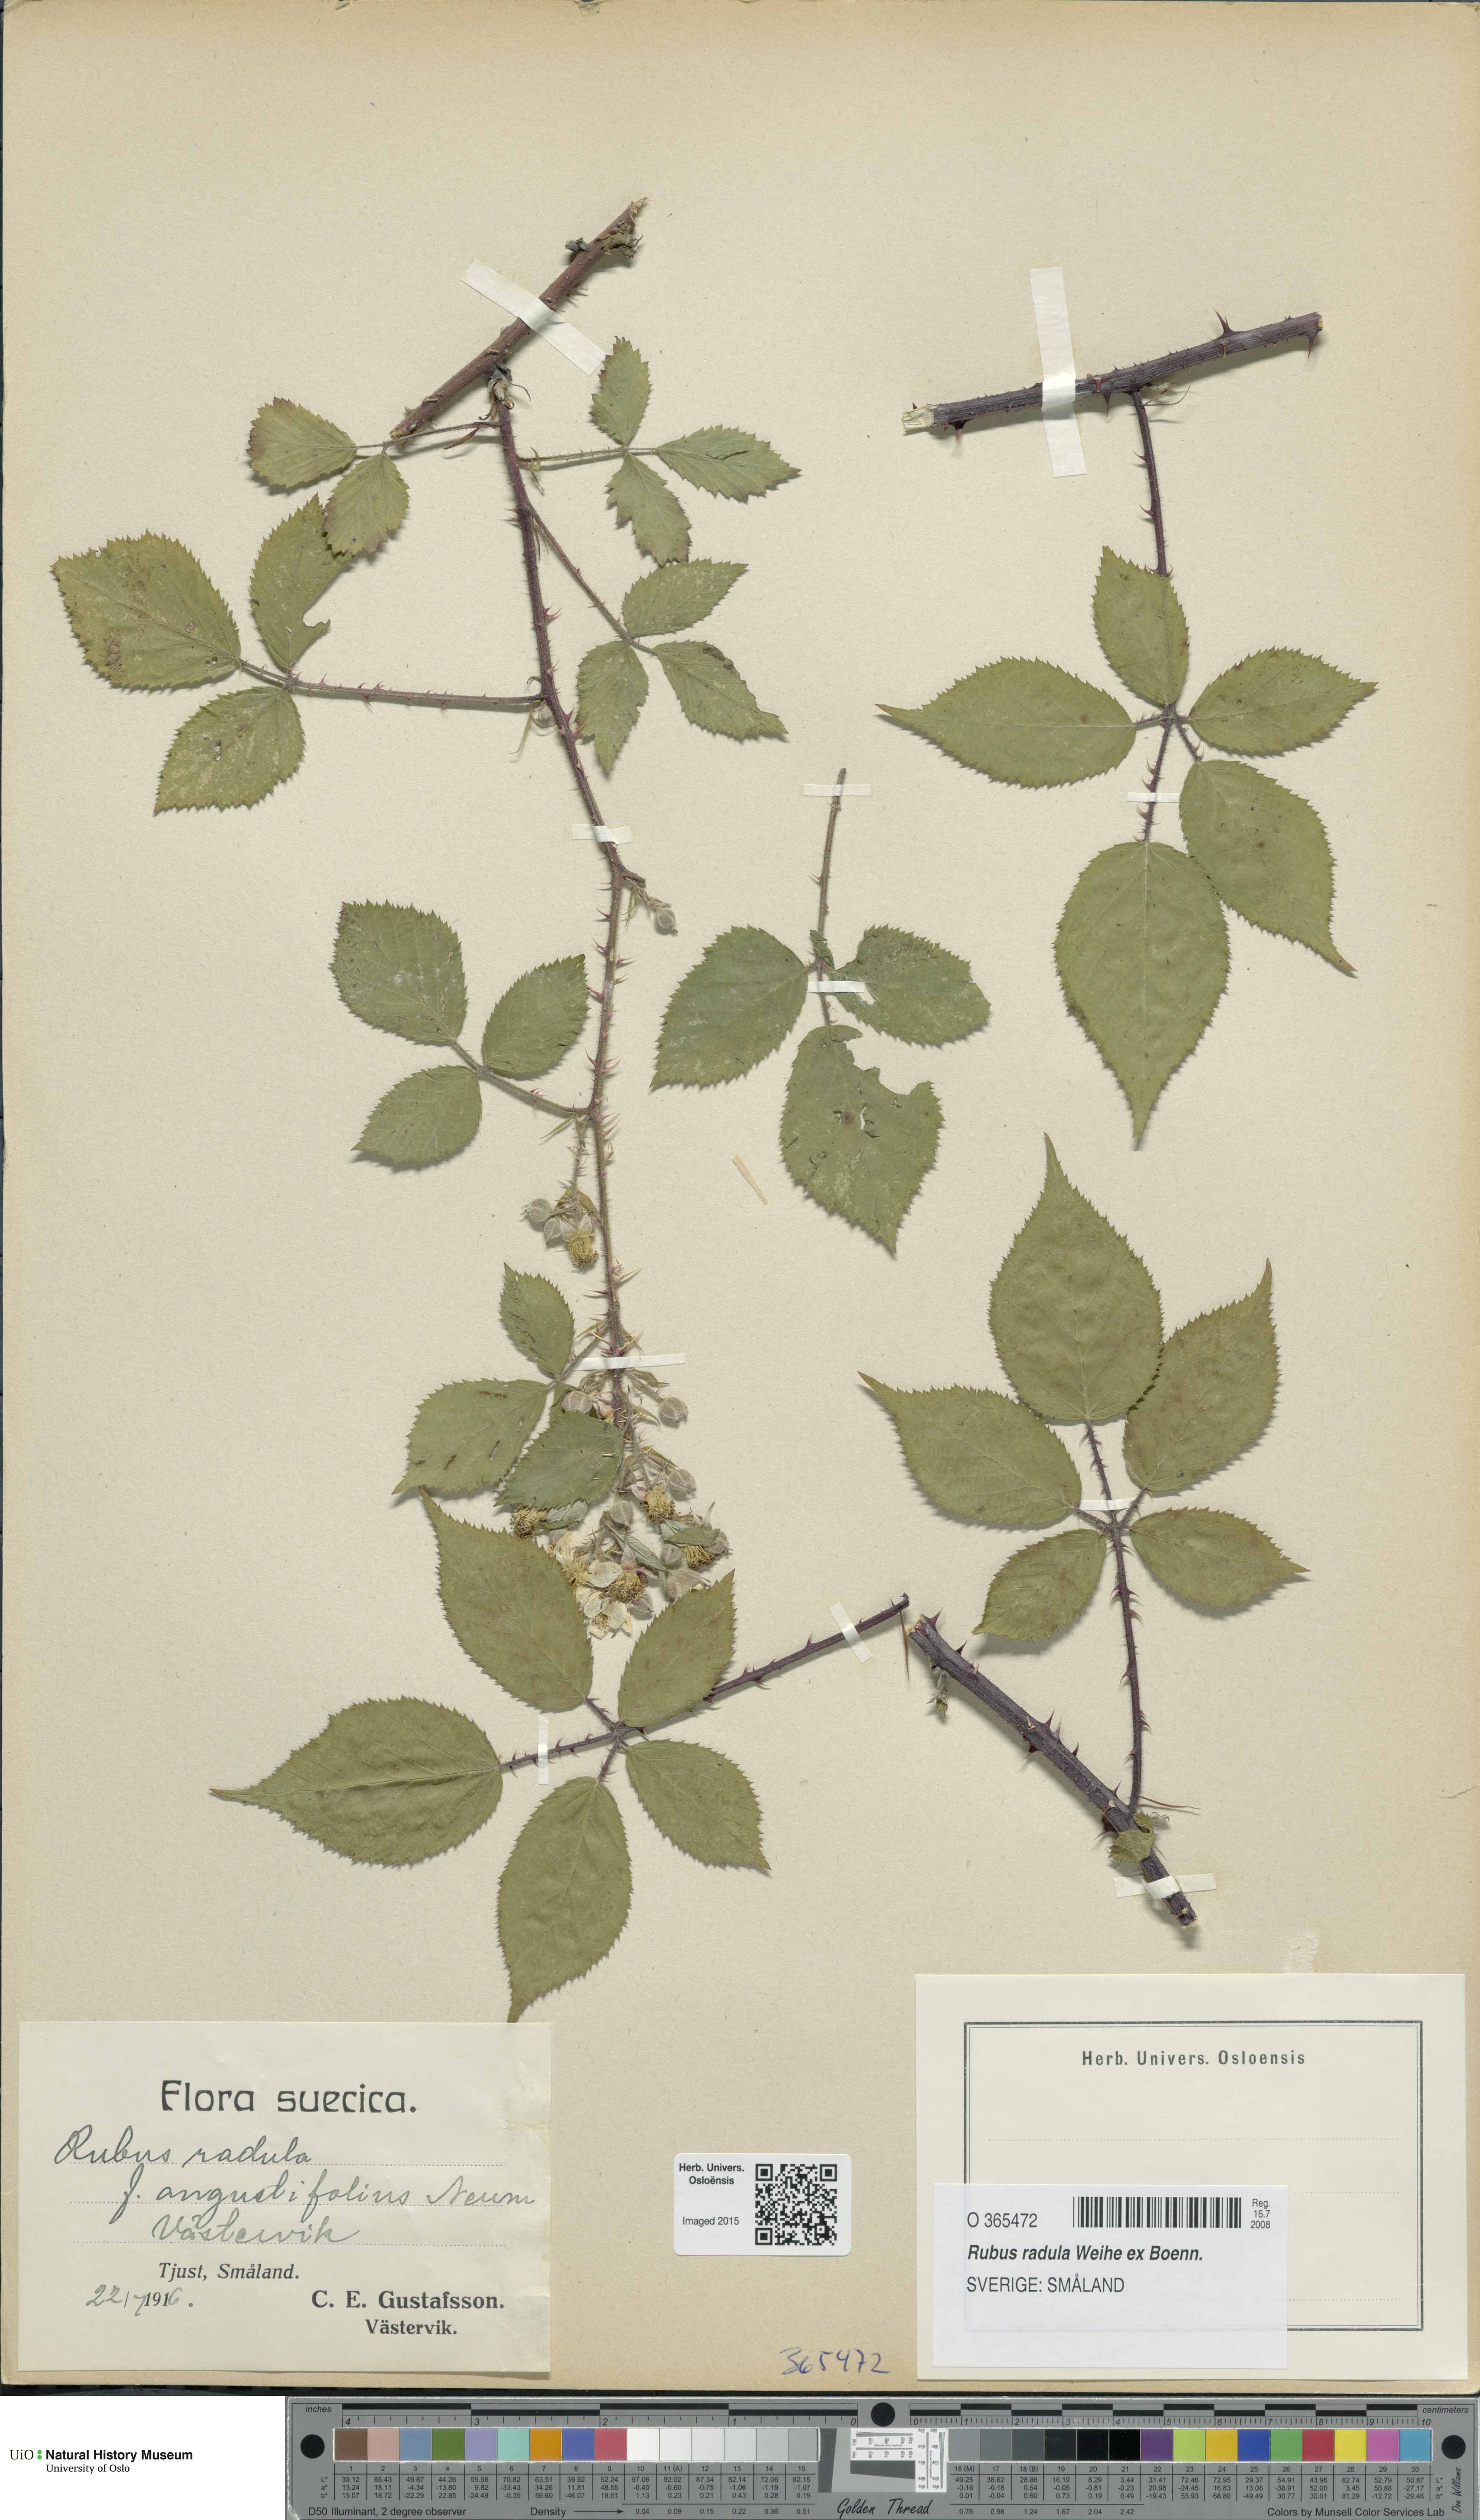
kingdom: Plantae
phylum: Tracheophyta
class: Magnoliopsida
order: Rosales
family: Rosaceae
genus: Rubus
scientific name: Rubus radula
